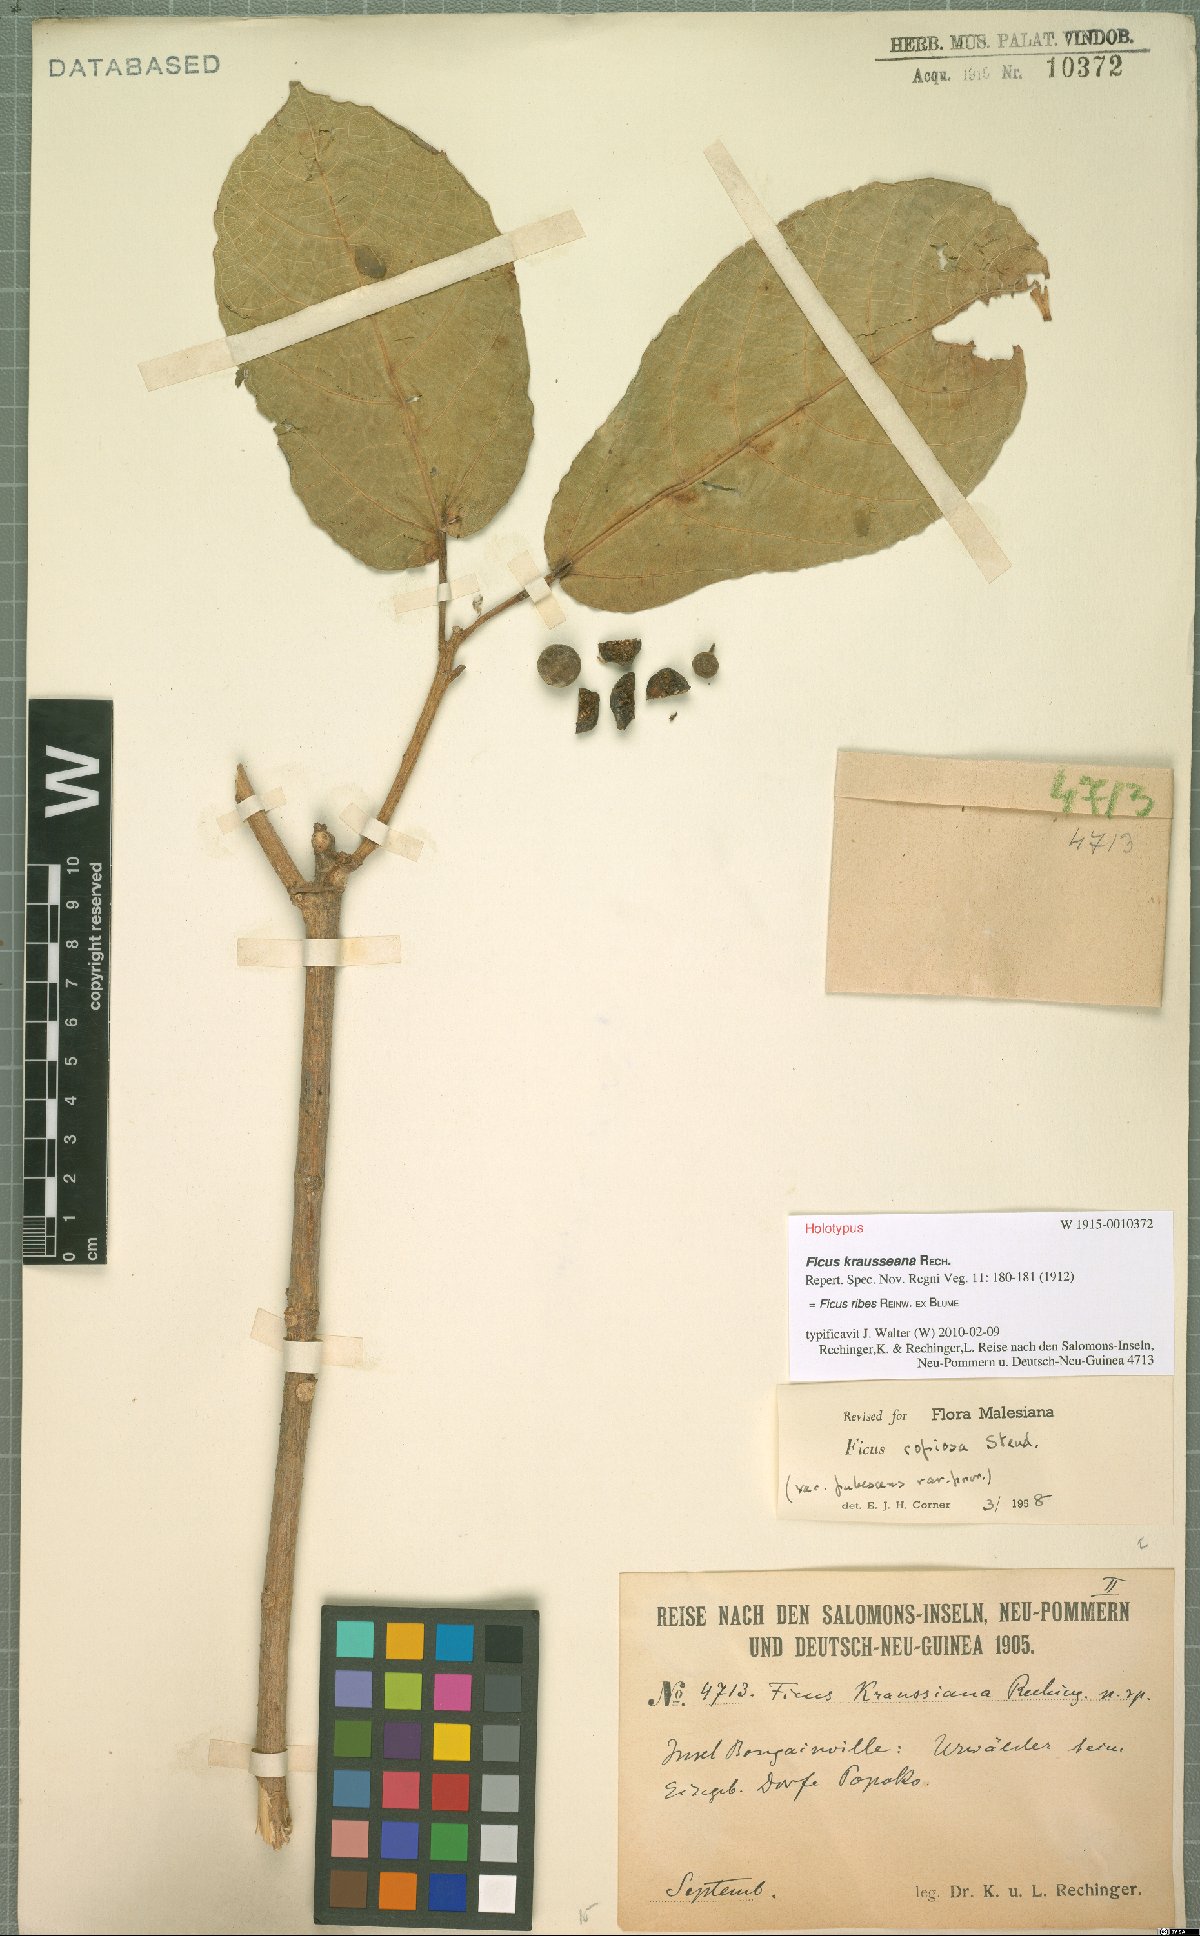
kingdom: Plantae
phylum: Tracheophyta
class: Magnoliopsida
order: Rosales
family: Moraceae
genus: Ficus
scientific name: Ficus ribes
